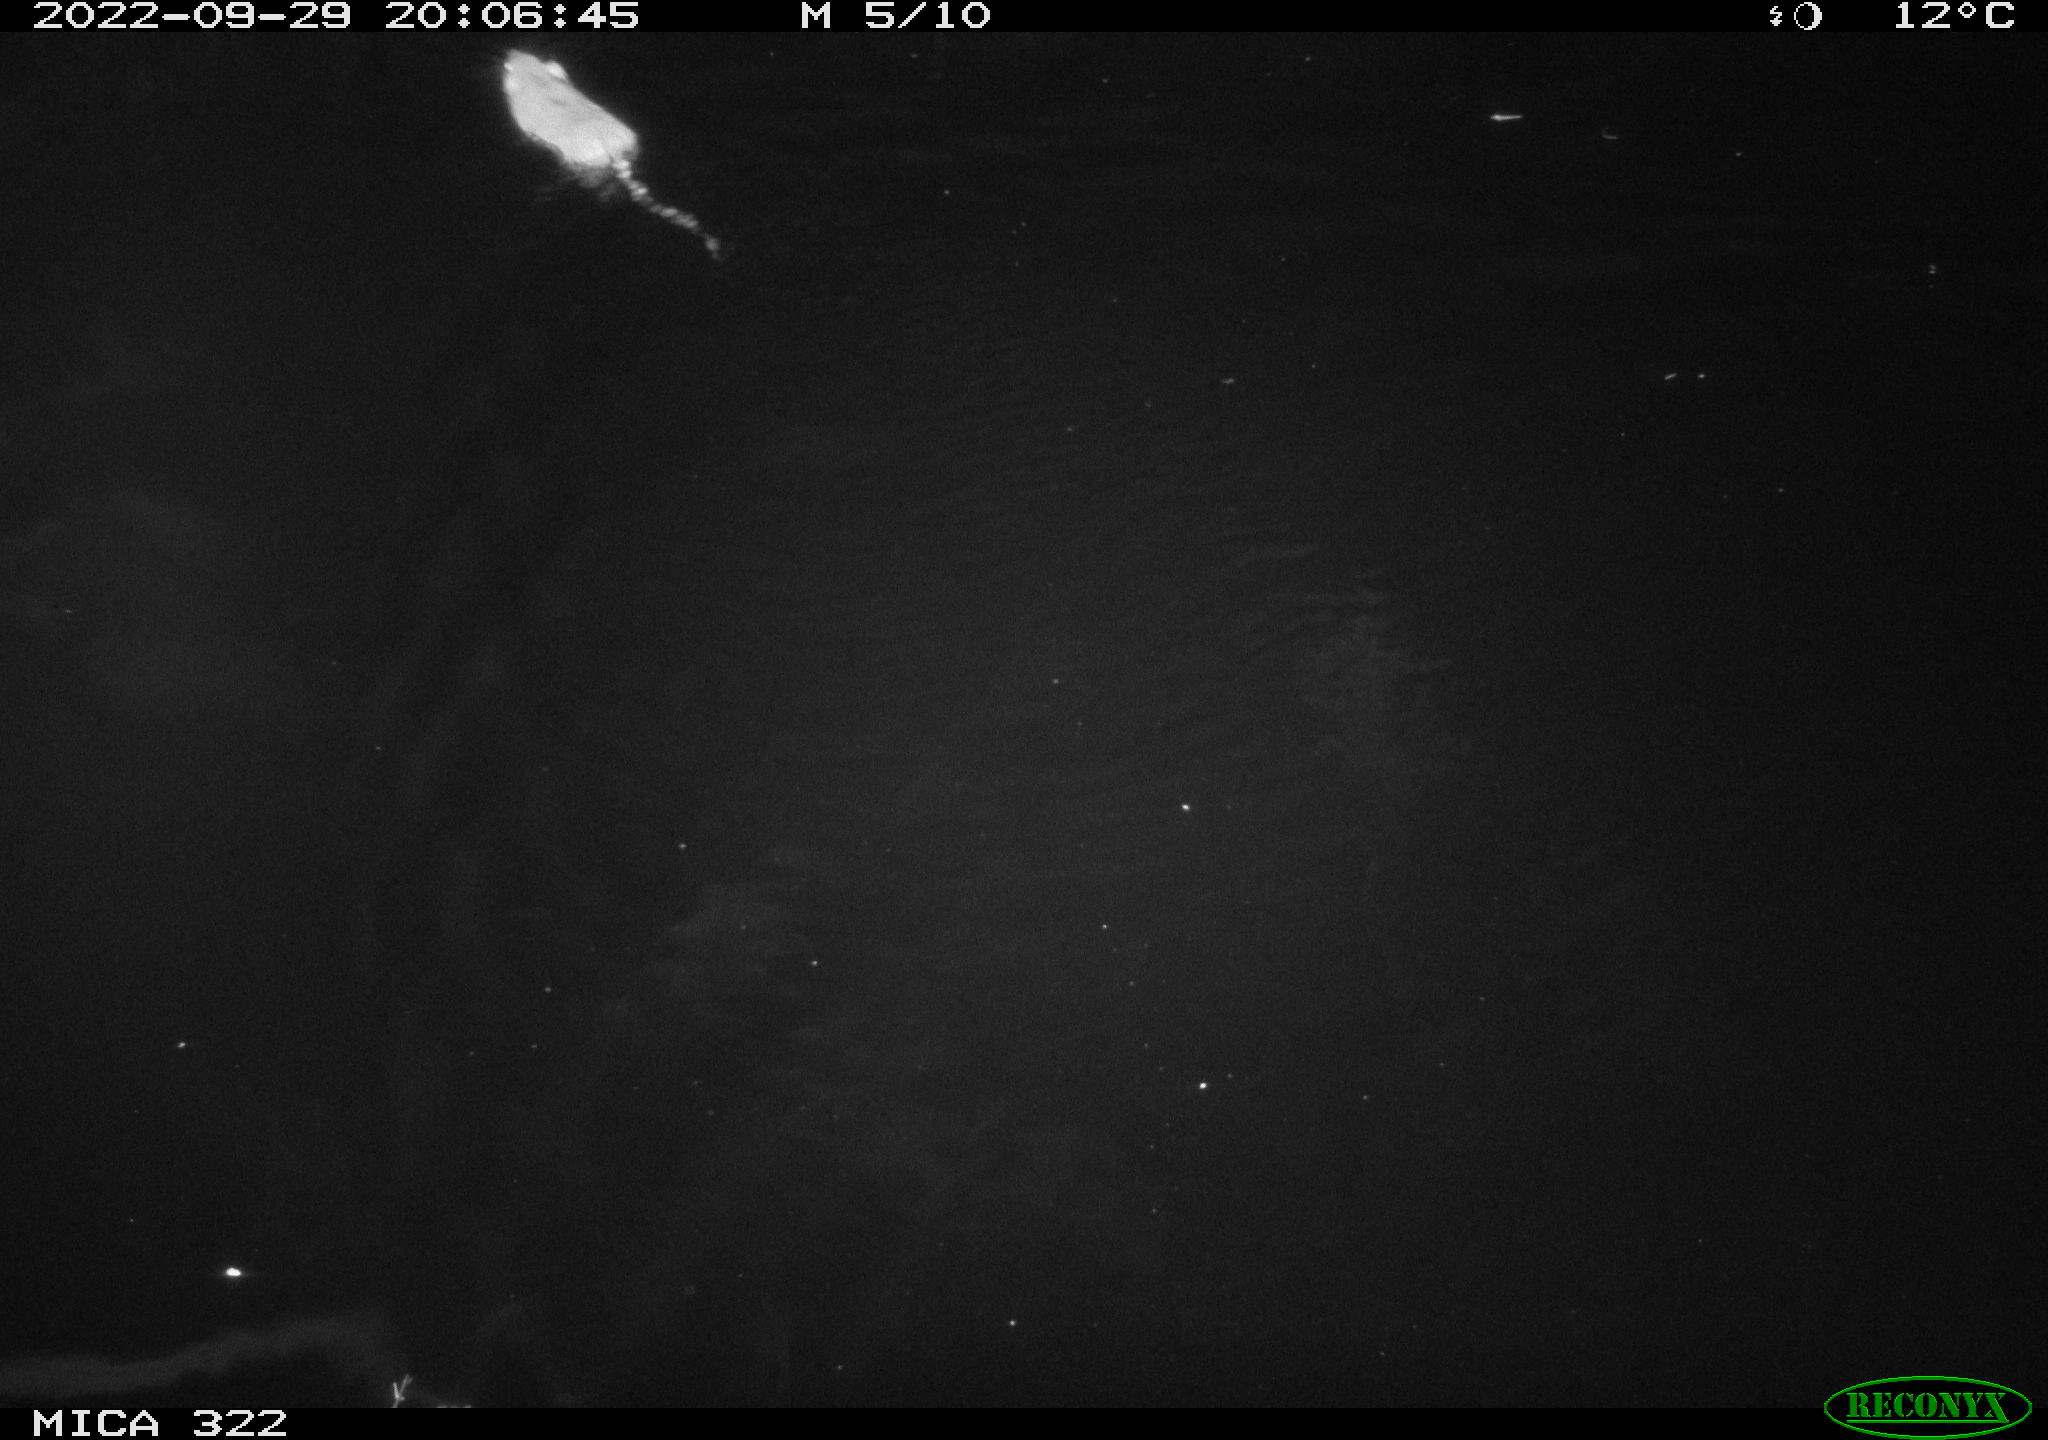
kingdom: Animalia
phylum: Chordata
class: Mammalia
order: Rodentia
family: Muridae
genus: Rattus
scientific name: Rattus norvegicus
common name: Brown rat
